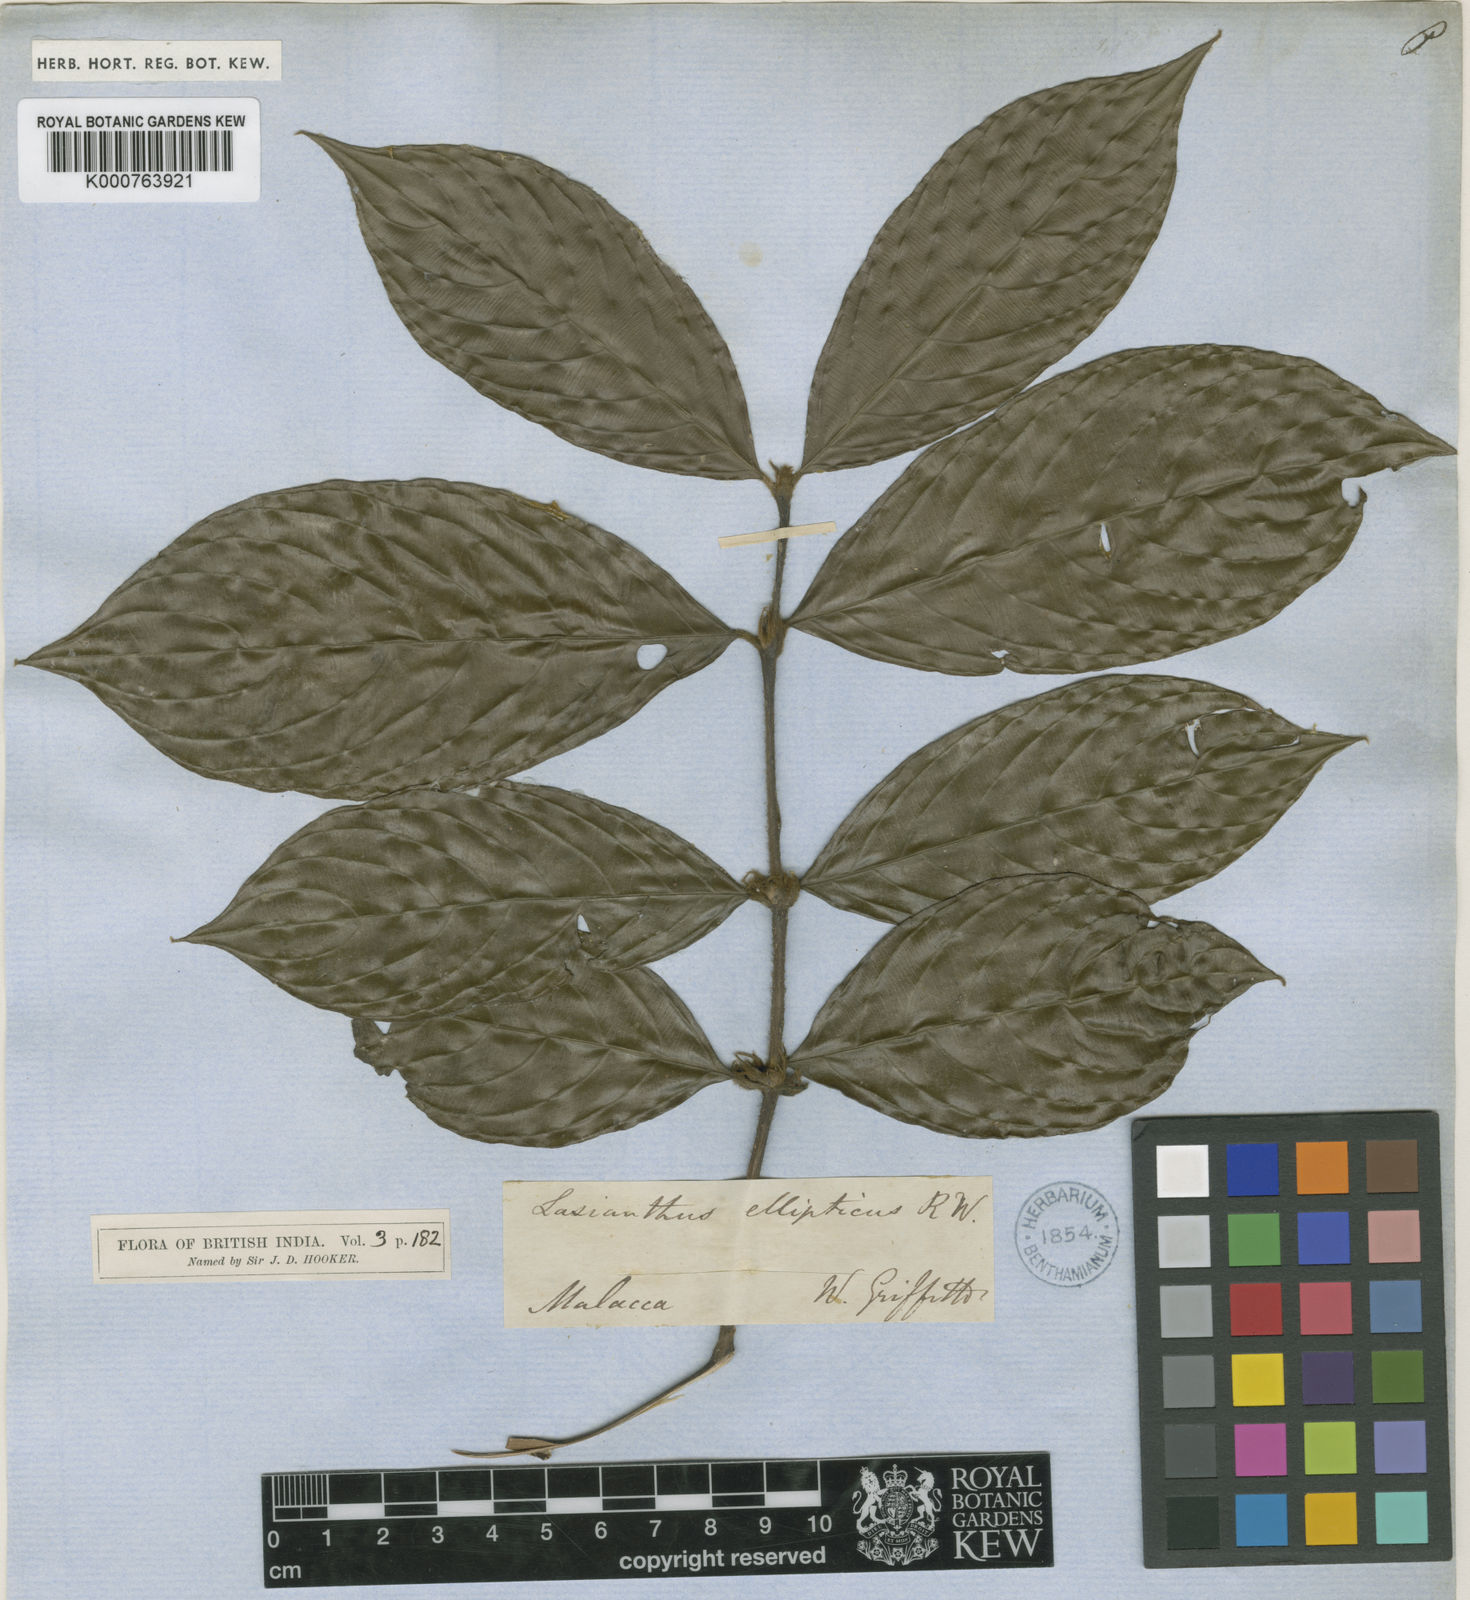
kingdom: Plantae
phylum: Tracheophyta
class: Magnoliopsida
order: Gentianales
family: Rubiaceae
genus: Lasianthus
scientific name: Lasianthus ellipticus
